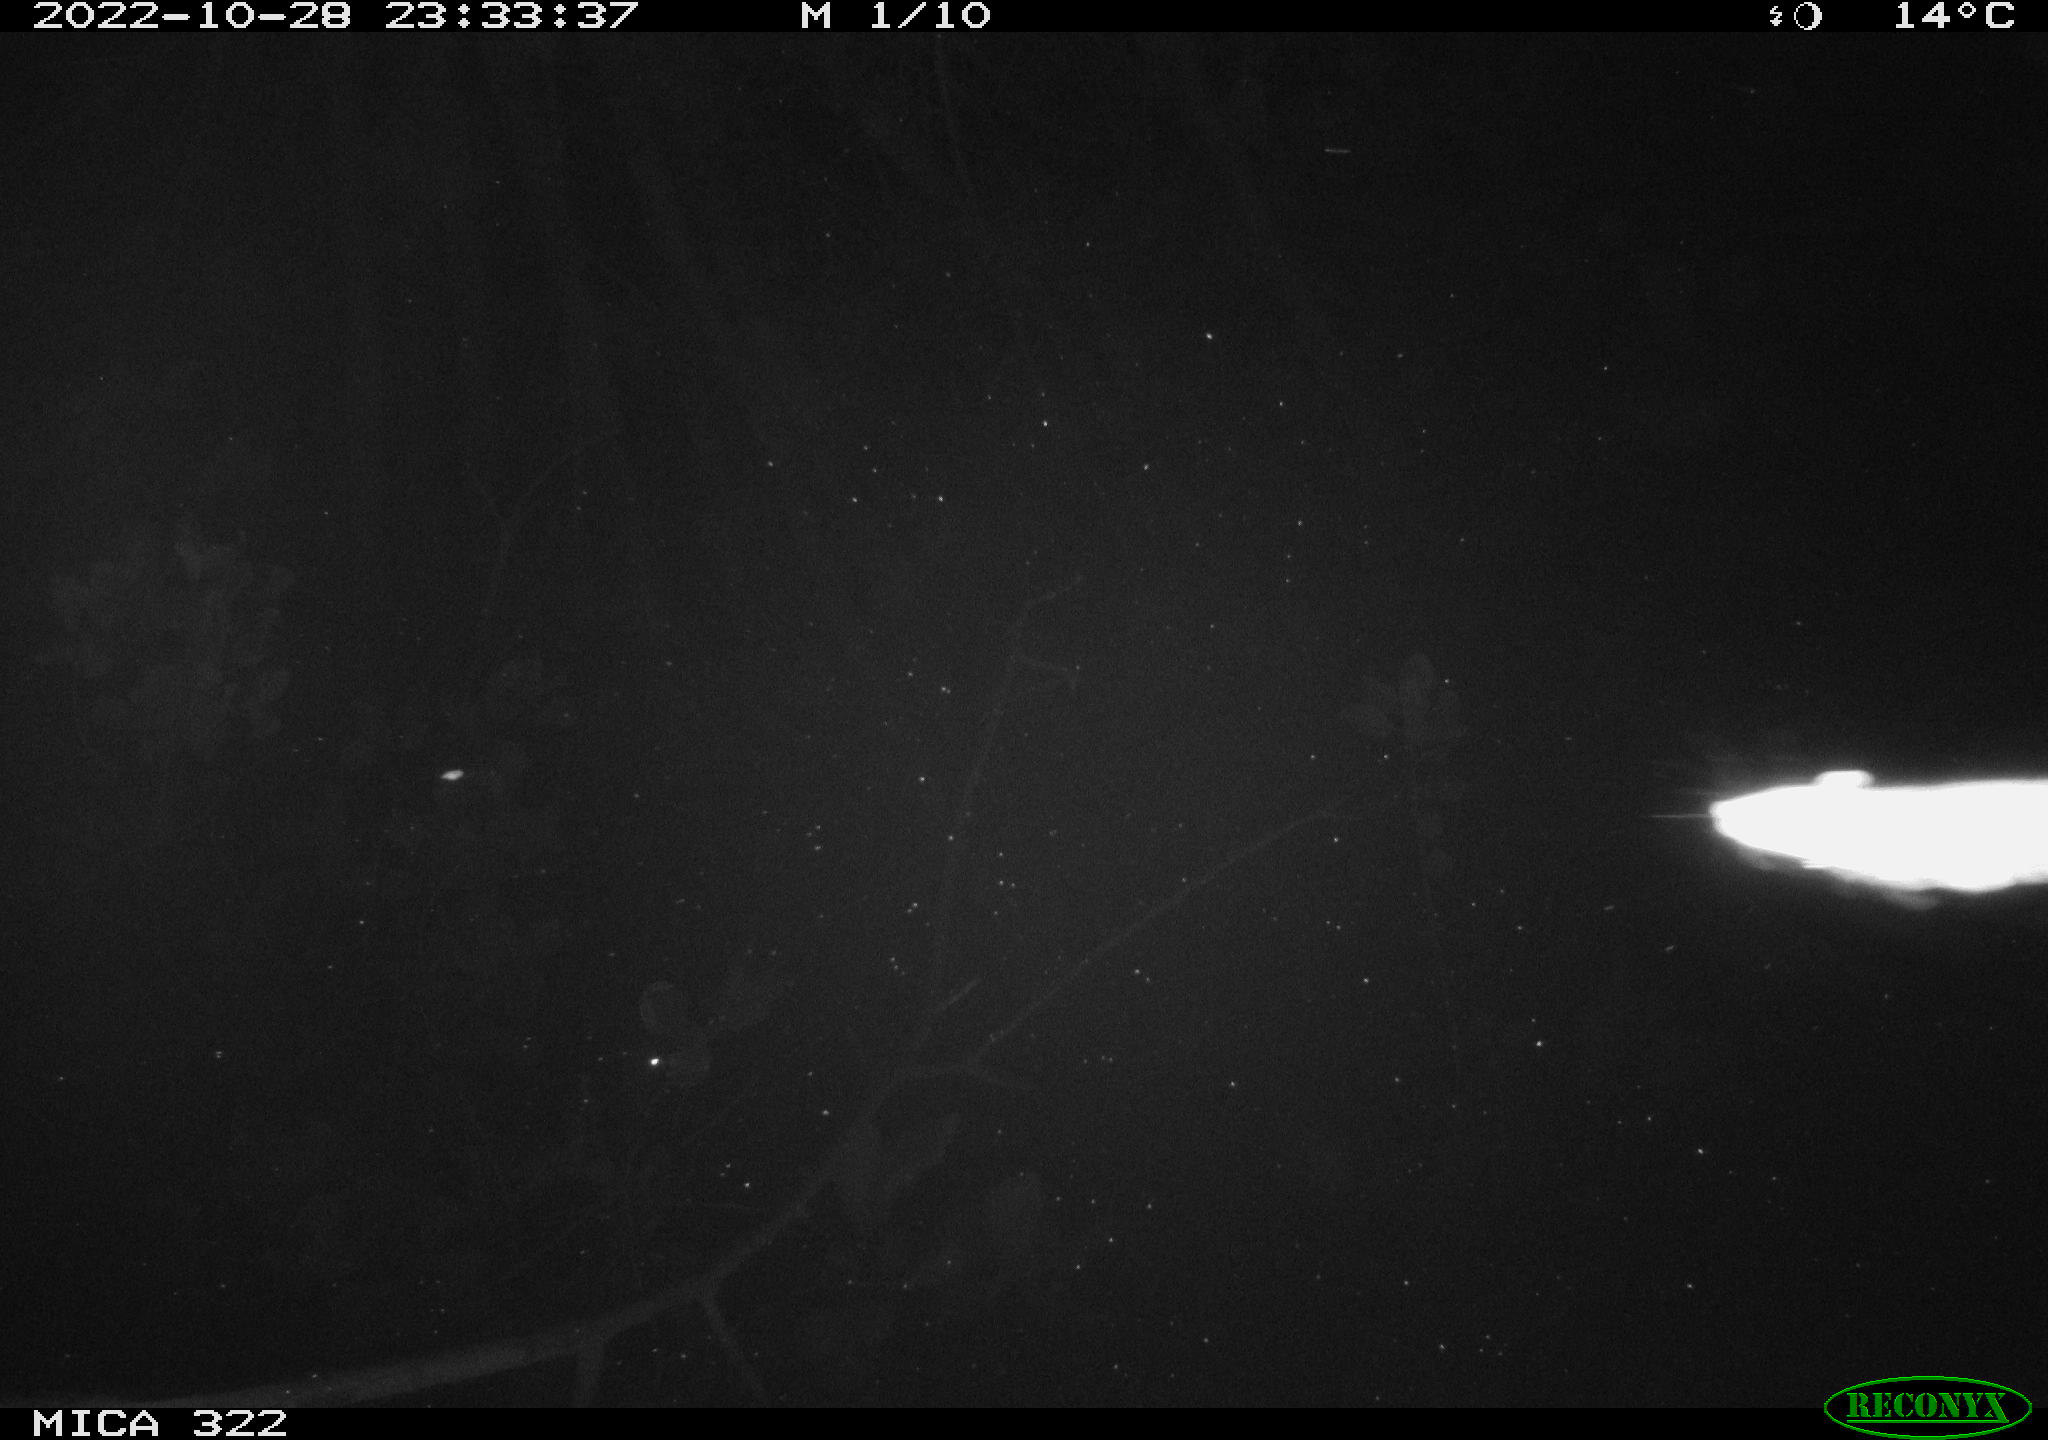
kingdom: Animalia
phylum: Chordata
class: Mammalia
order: Rodentia
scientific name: Rodentia
